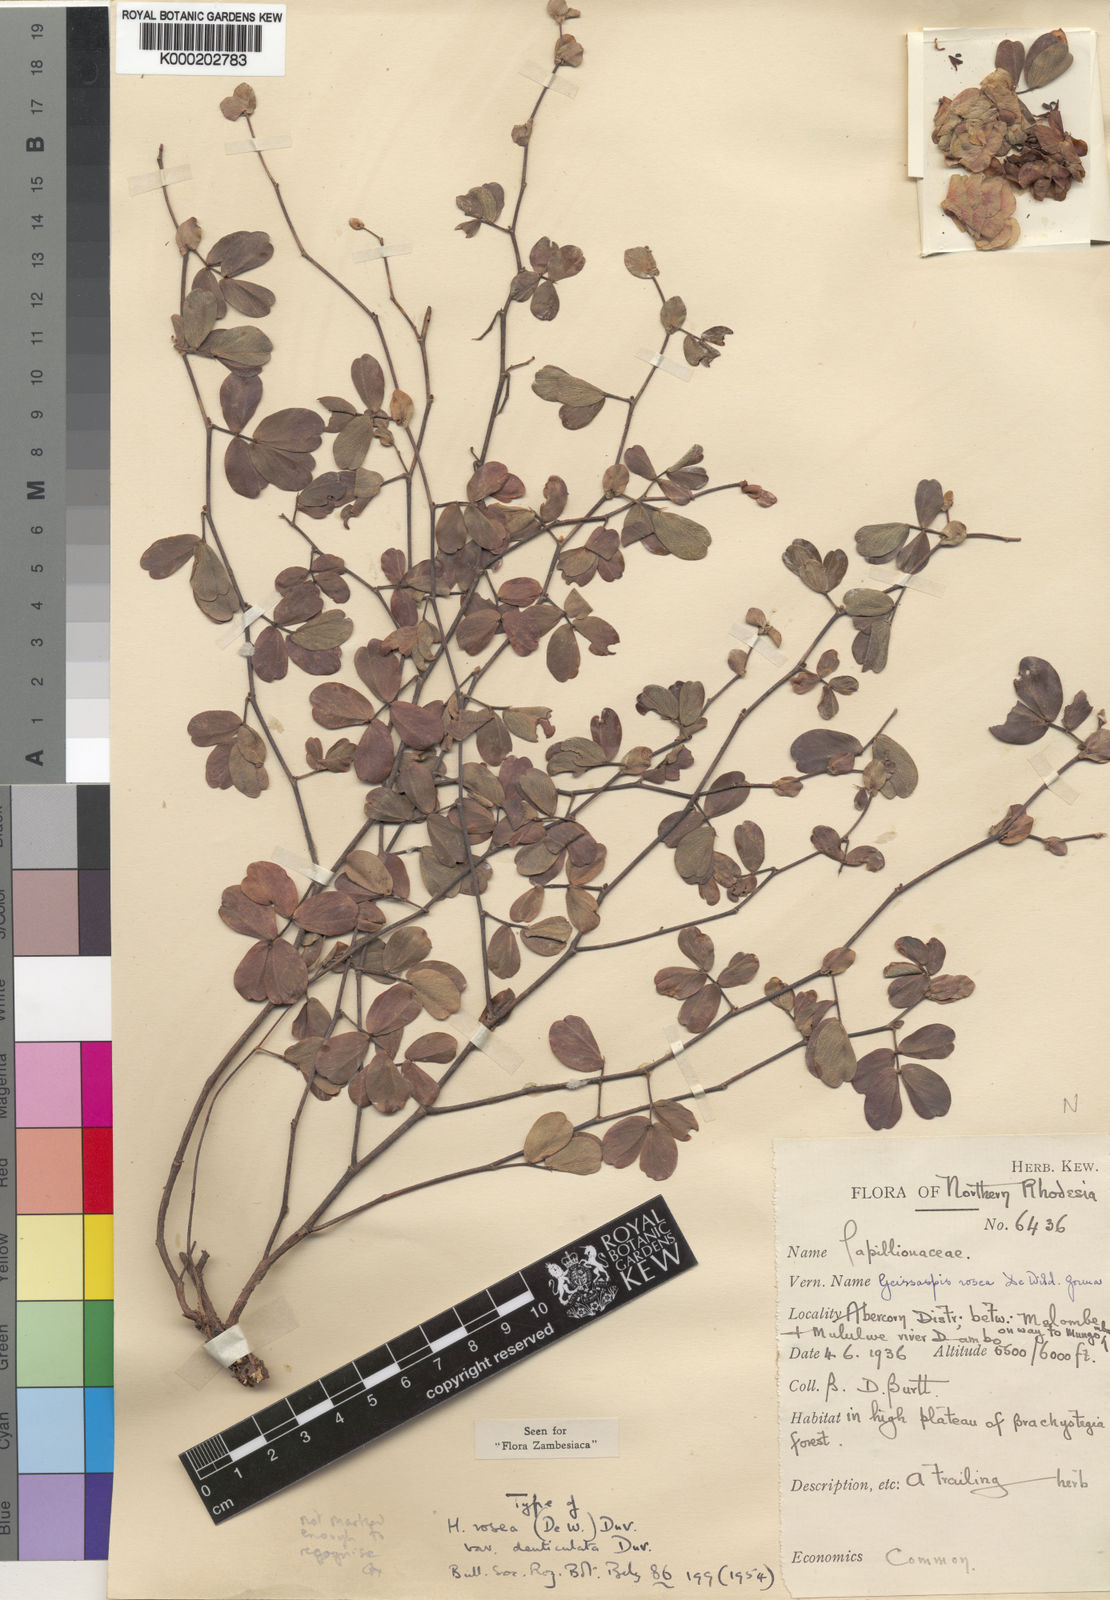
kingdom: Plantae
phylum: Tracheophyta
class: Magnoliopsida
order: Fabales
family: Fabaceae
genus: Humularia
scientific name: Humularia rosea
